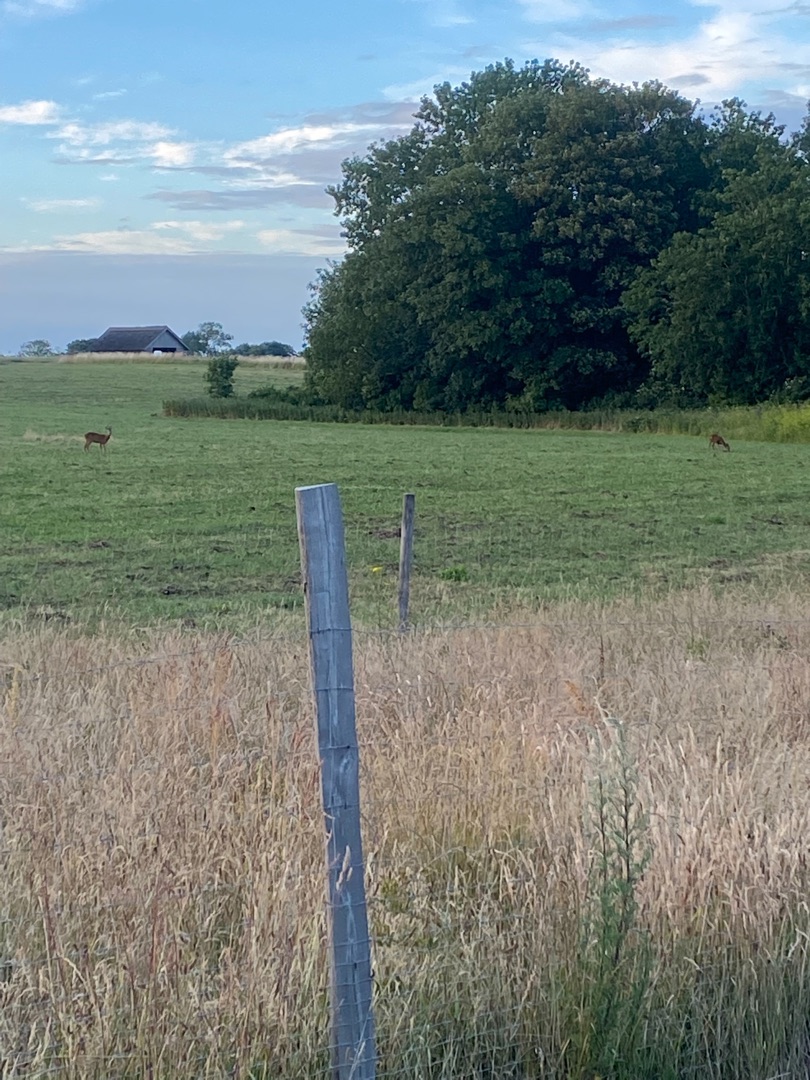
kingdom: Animalia
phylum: Chordata
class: Mammalia
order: Artiodactyla
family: Cervidae
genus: Capreolus
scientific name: Capreolus capreolus
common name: Rådyr
